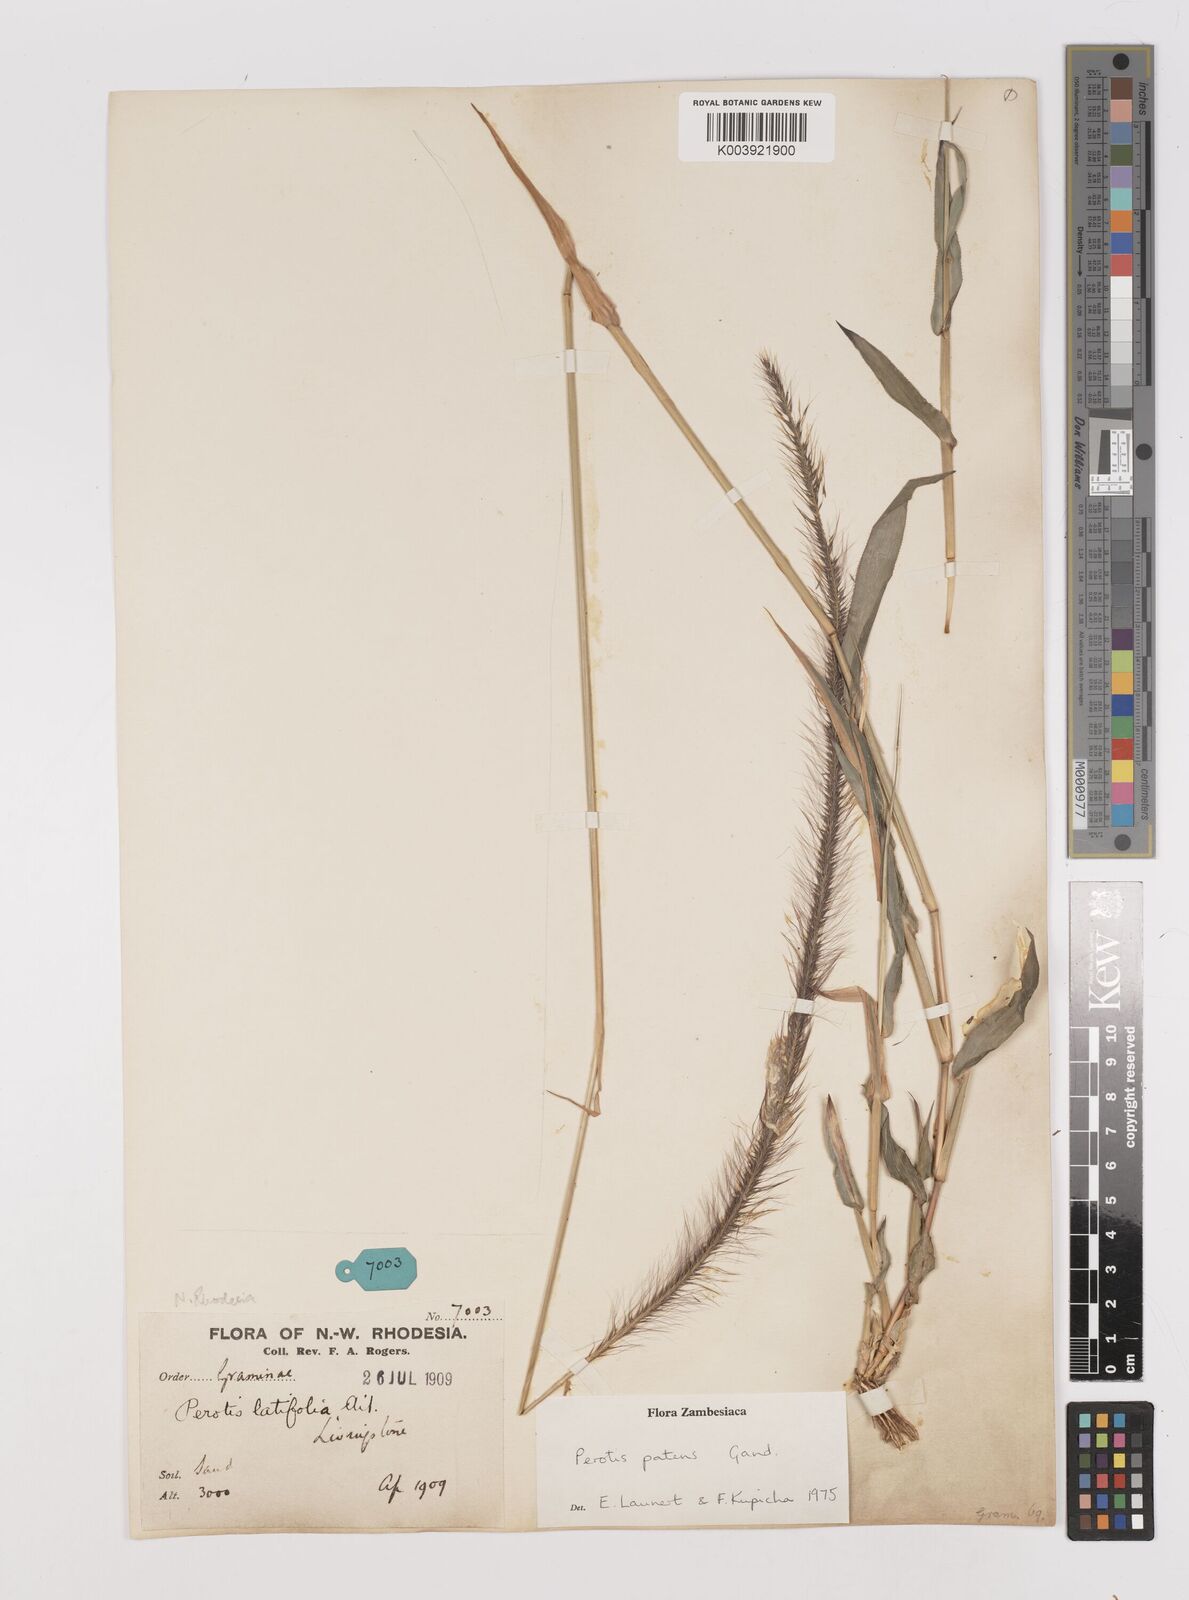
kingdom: Plantae
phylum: Tracheophyta
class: Liliopsida
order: Poales
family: Poaceae
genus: Perotis
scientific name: Perotis patens
